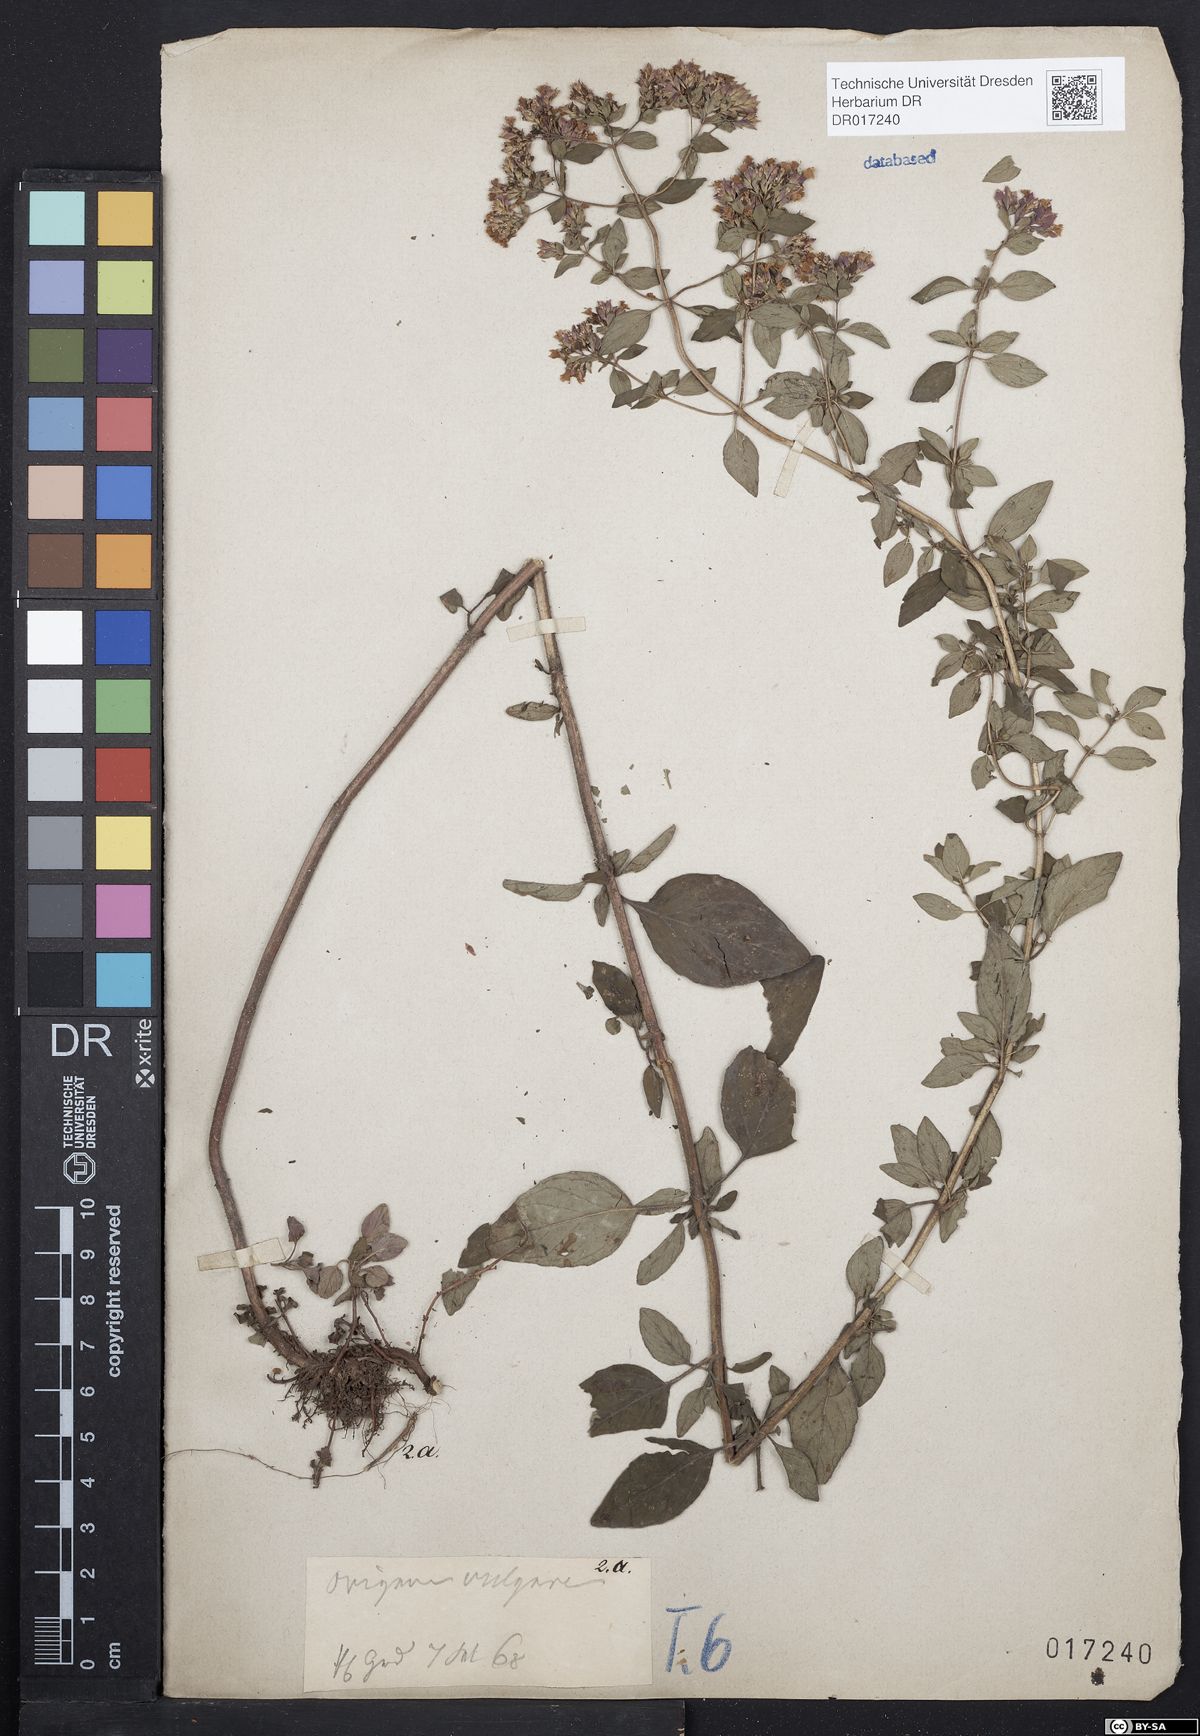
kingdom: Plantae
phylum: Tracheophyta
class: Magnoliopsida
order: Lamiales
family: Lamiaceae
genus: Origanum
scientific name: Origanum vulgare
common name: Wild marjoram
